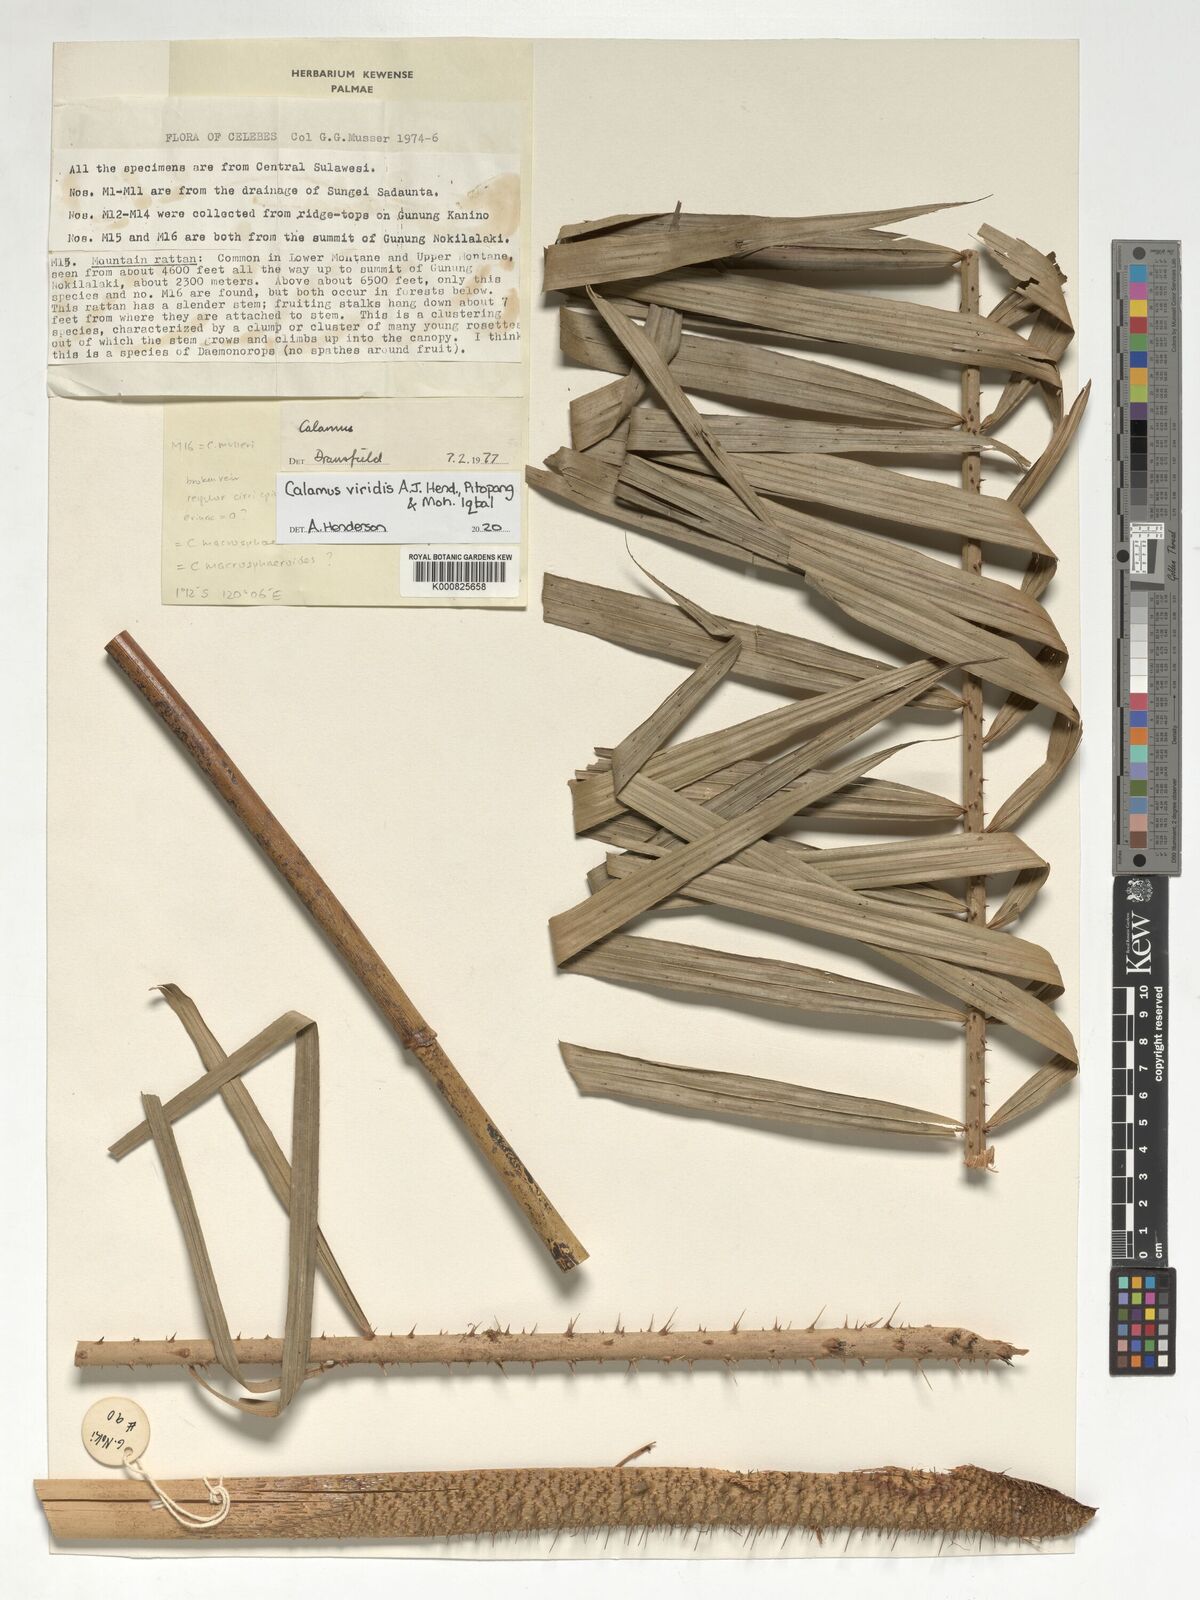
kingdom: Plantae
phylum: Tracheophyta
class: Liliopsida
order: Arecales
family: Arecaceae
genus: Calamus
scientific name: Calamus
